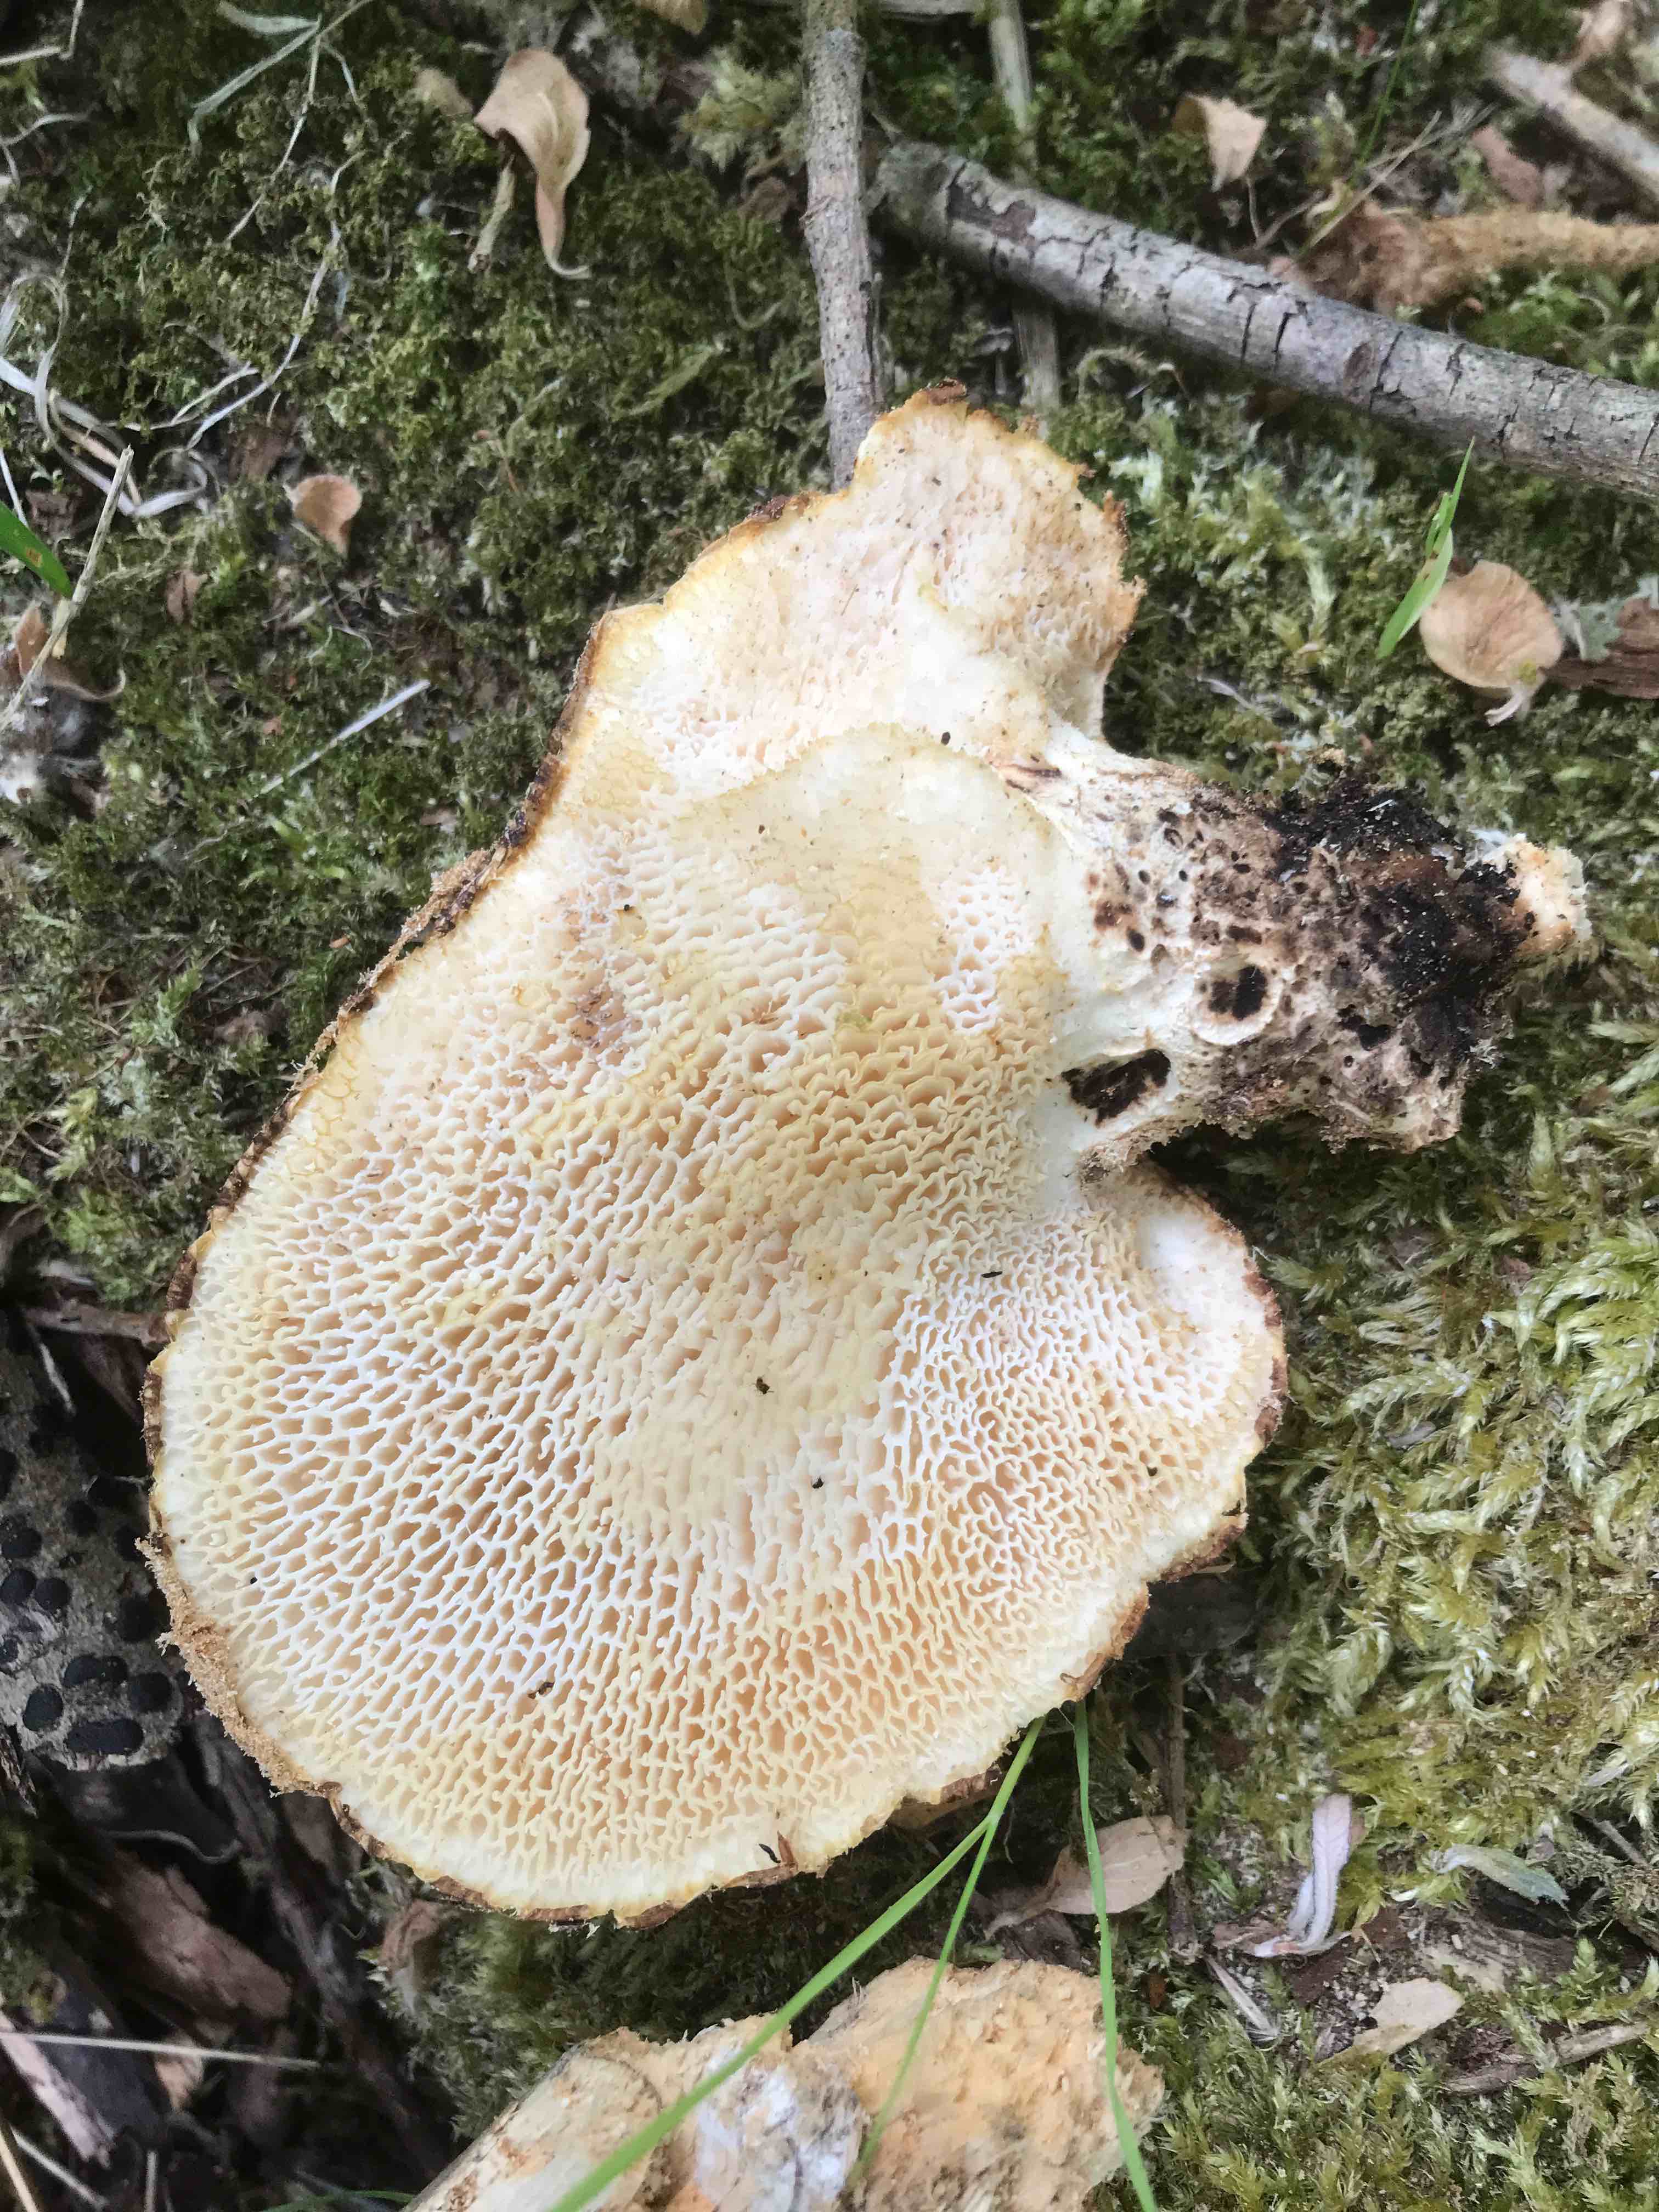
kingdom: Fungi
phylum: Basidiomycota
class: Agaricomycetes
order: Polyporales
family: Polyporaceae
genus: Cerioporus
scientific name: Cerioporus squamosus
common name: skællet stilkporesvamp
